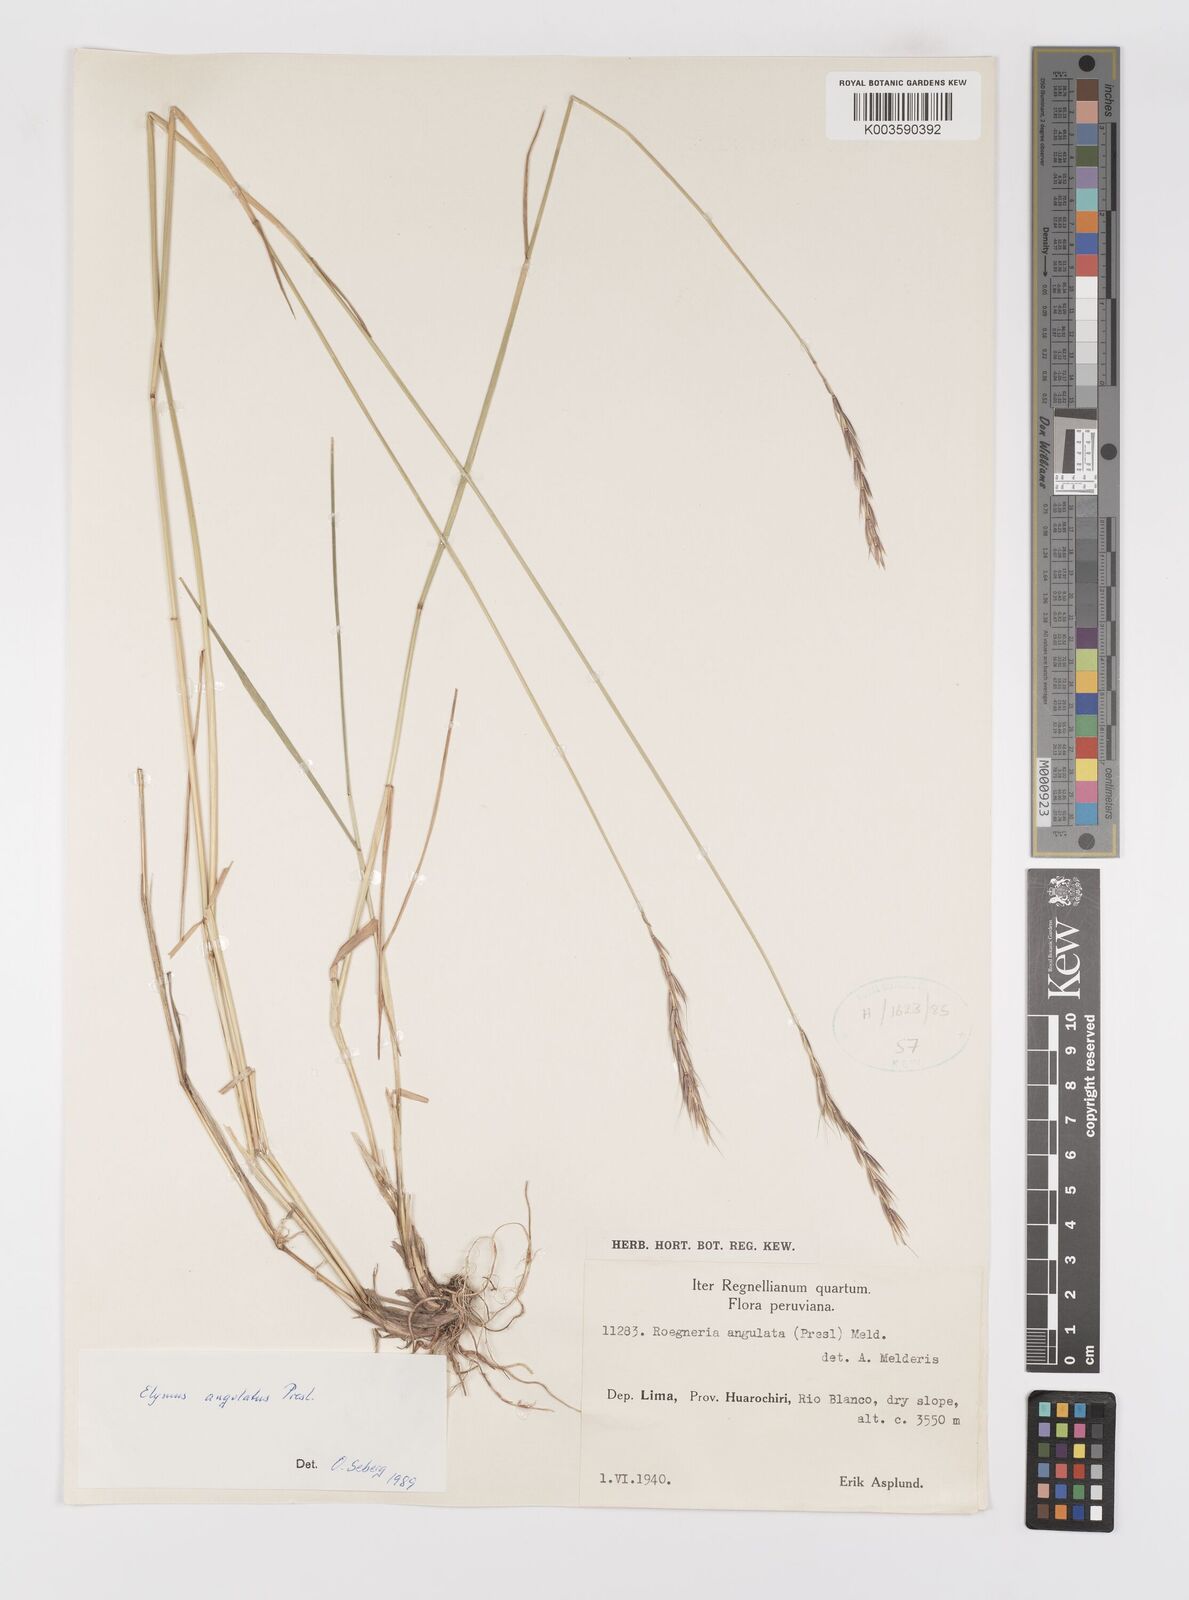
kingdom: Plantae
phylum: Tracheophyta
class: Liliopsida
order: Poales
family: Poaceae
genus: Elymus
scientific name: Elymus angulatus
